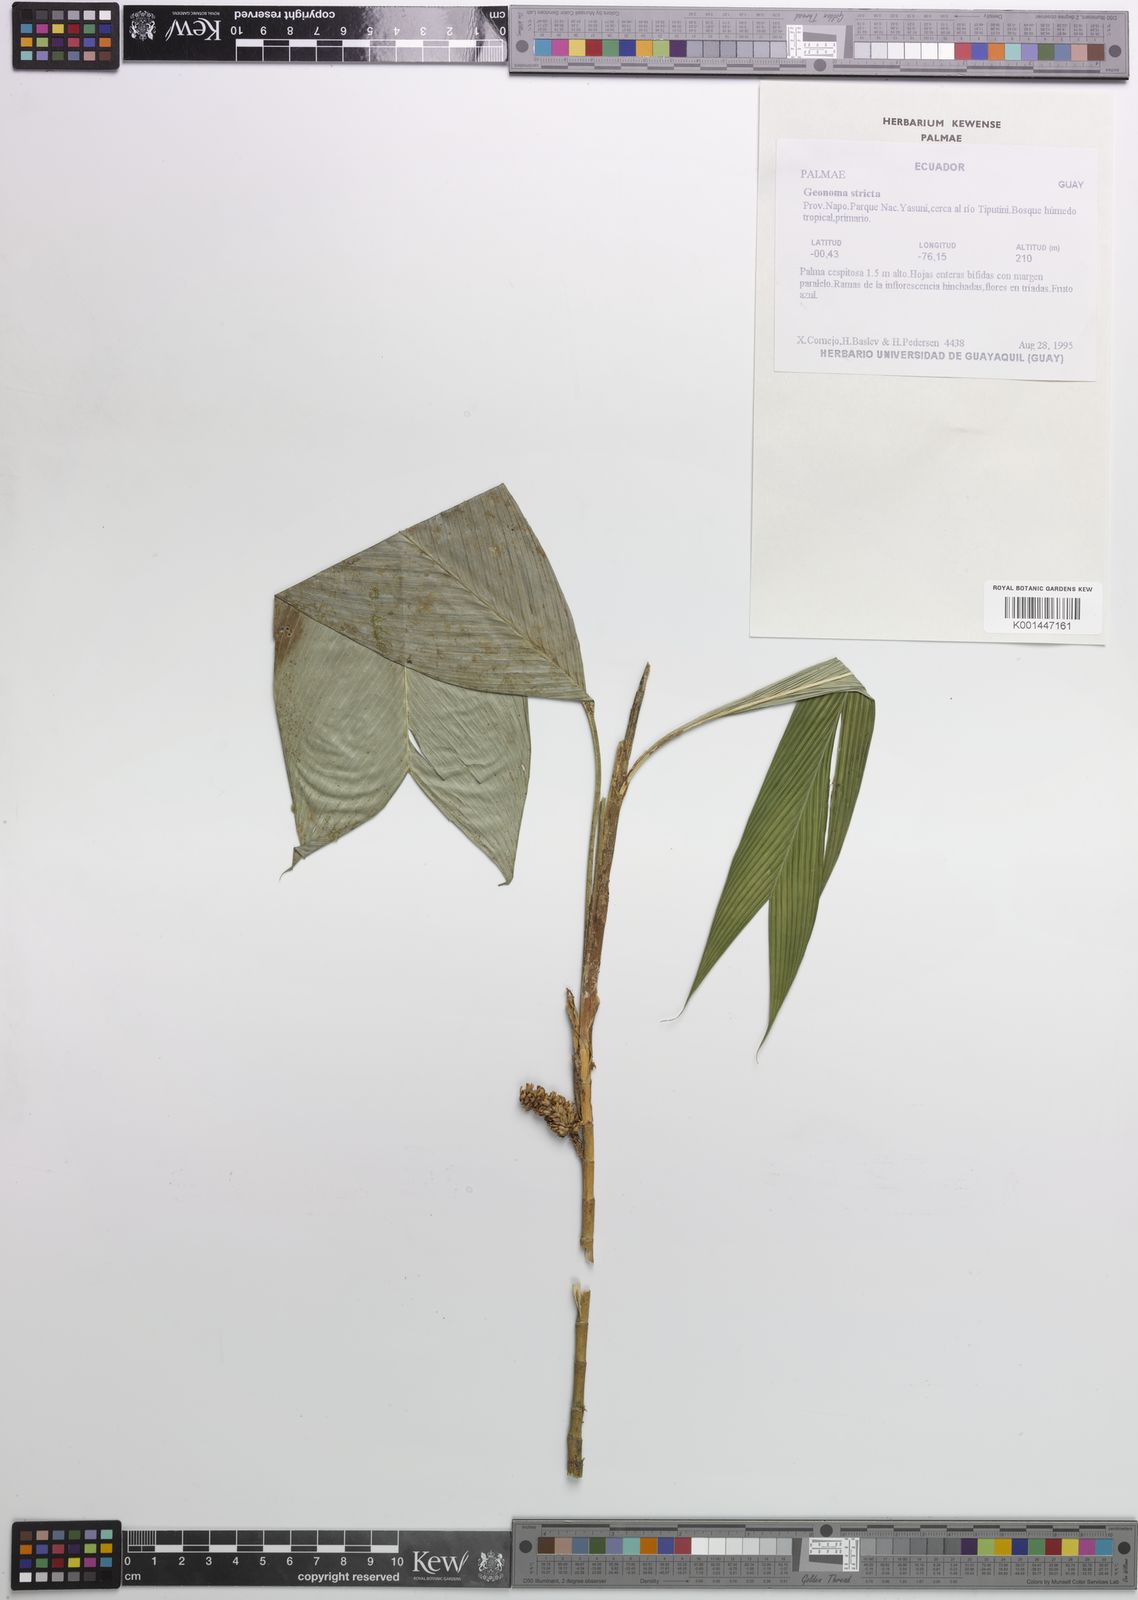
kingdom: Plantae
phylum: Tracheophyta
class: Liliopsida
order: Arecales
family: Arecaceae
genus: Geonoma
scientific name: Geonoma stricta
